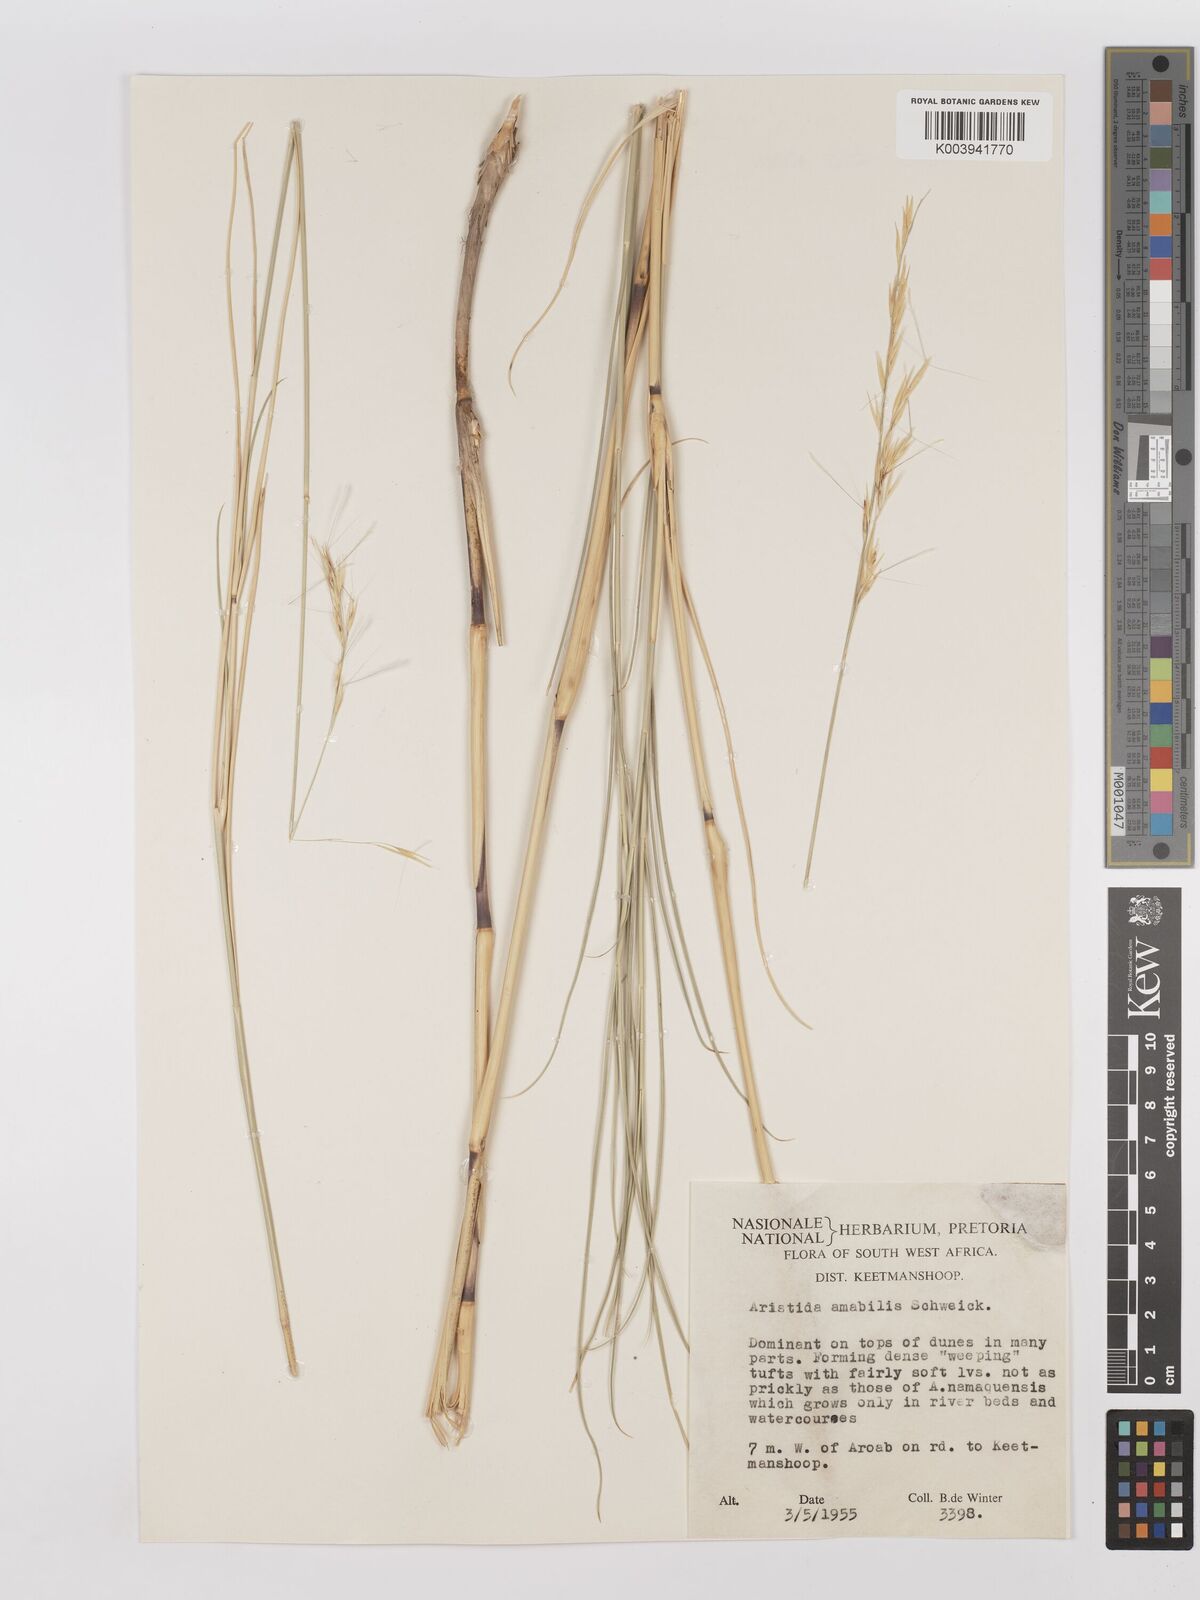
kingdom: Plantae
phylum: Tracheophyta
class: Liliopsida
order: Poales
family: Poaceae
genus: Stipagrostis
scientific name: Stipagrostis amabilis
